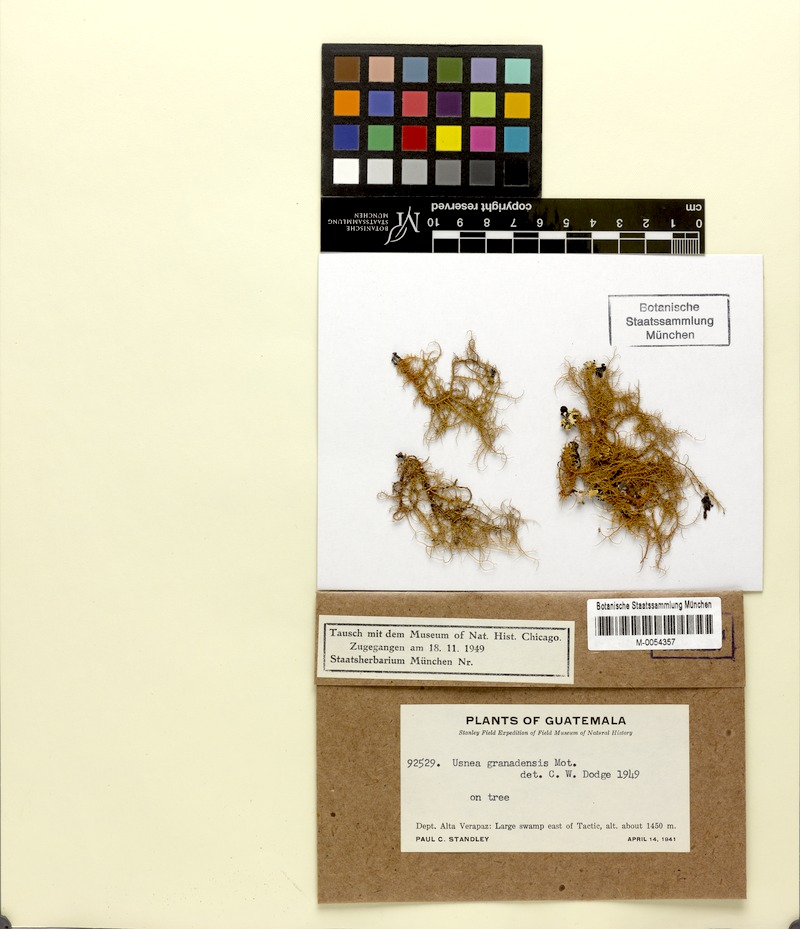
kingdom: Fungi
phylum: Ascomycota
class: Lecanoromycetes
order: Lecanorales
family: Parmeliaceae
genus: Usnea
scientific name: Usnea granadensis
